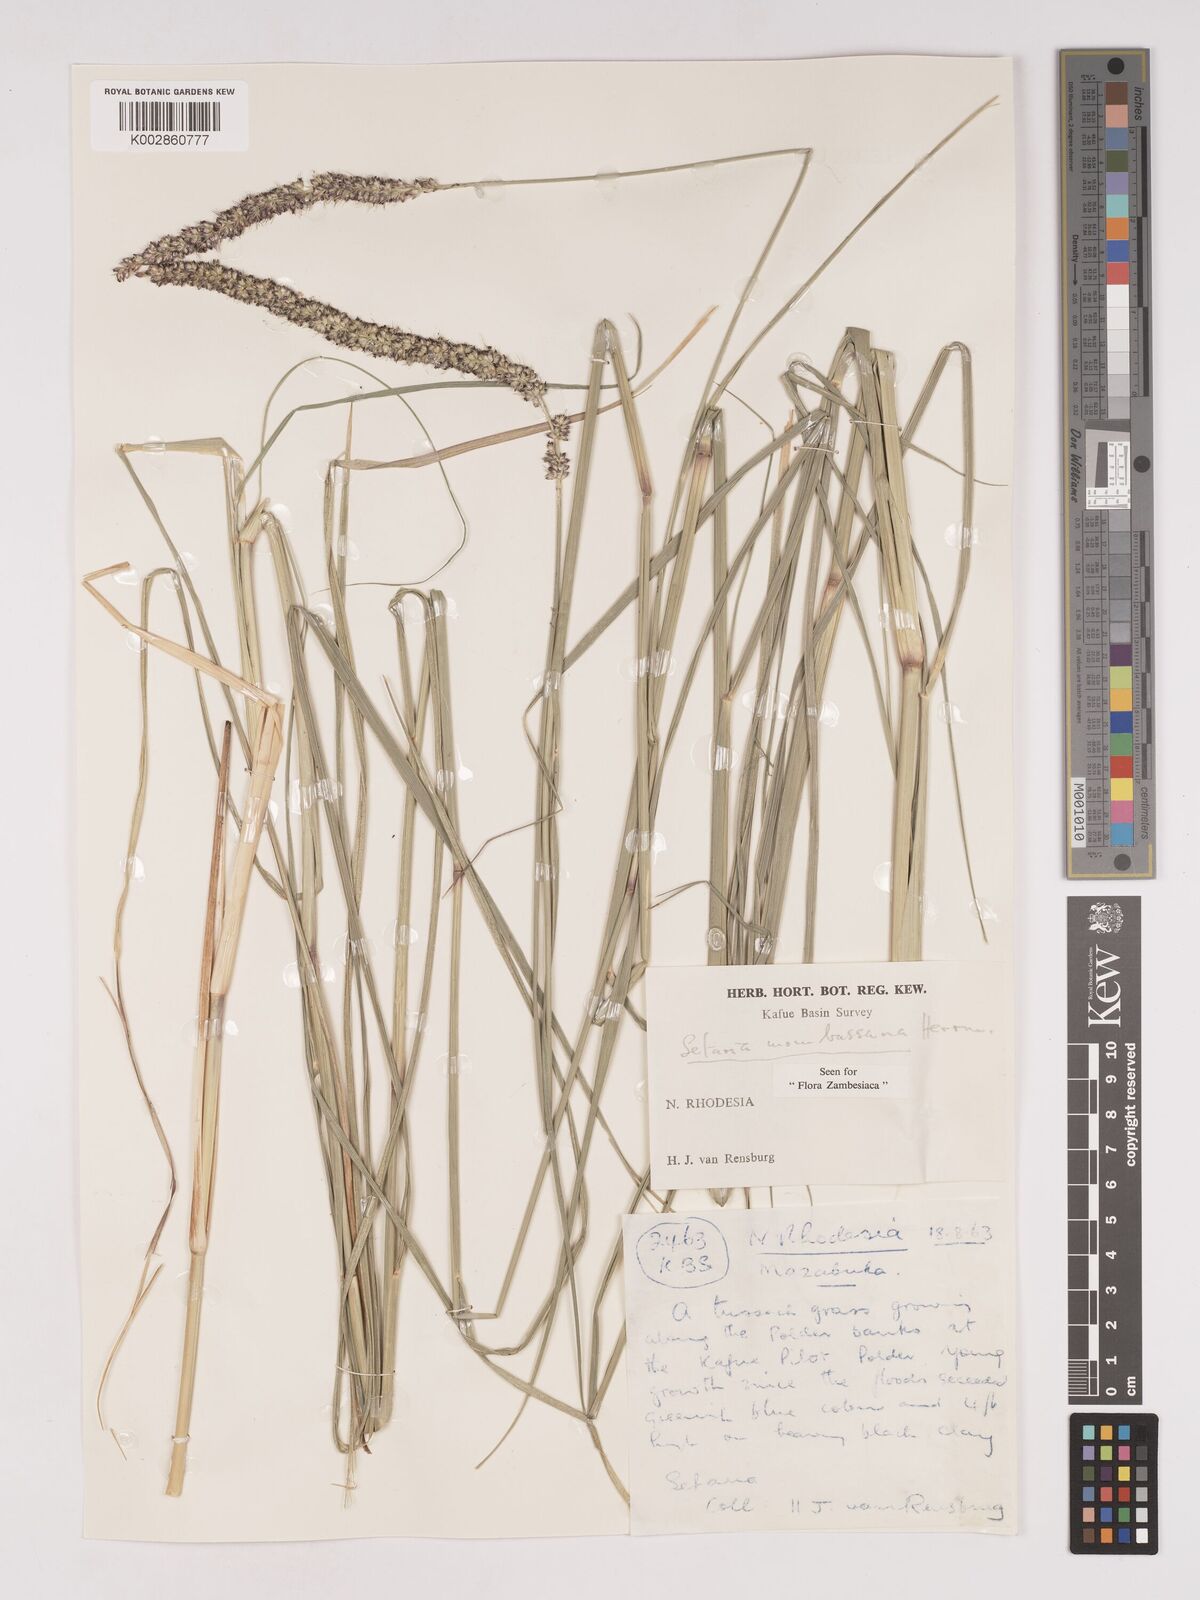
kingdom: Plantae
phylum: Tracheophyta
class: Liliopsida
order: Poales
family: Poaceae
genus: Setaria
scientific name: Setaria incrassata
